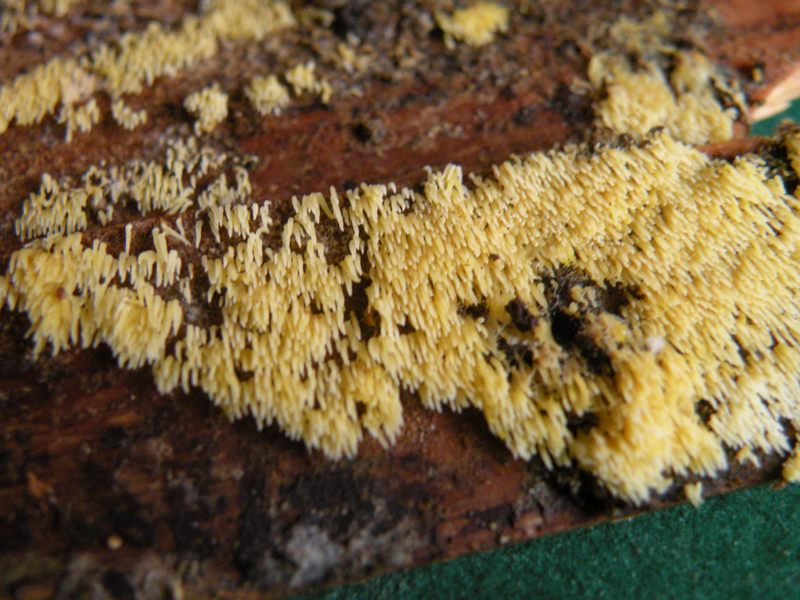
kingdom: Fungi
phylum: Basidiomycota
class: Agaricomycetes
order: Agaricales
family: Clavariaceae
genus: Mucronella
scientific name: Mucronella flava
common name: gul hængepig
